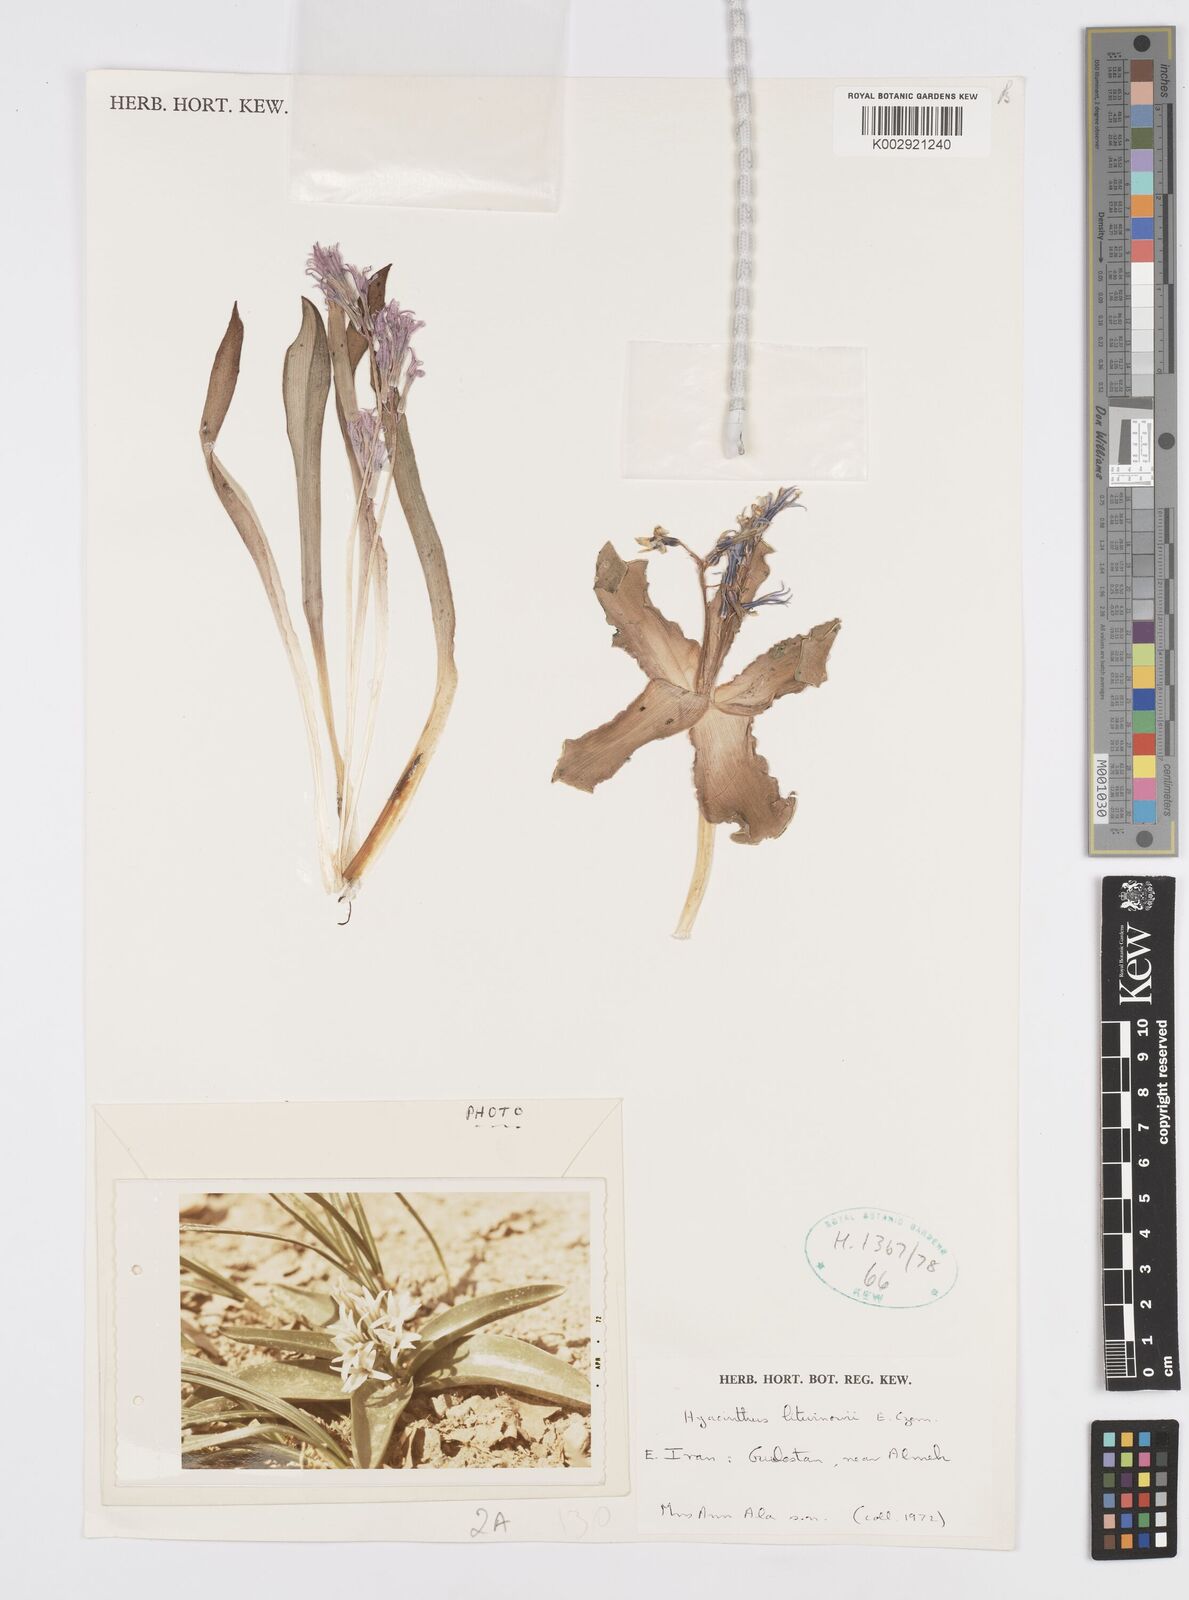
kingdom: Plantae
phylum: Tracheophyta
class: Liliopsida
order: Asparagales
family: Asparagaceae
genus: Hyacinthus
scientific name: Hyacinthus litwinowii
